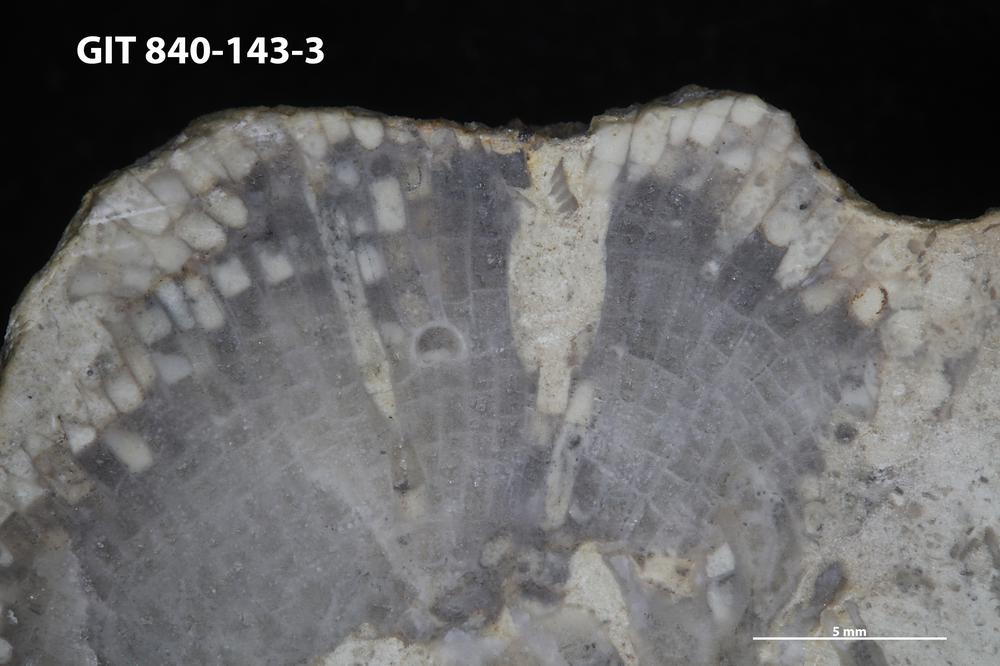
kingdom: Animalia
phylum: Sipuncula
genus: Trypanites
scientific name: Trypanites
